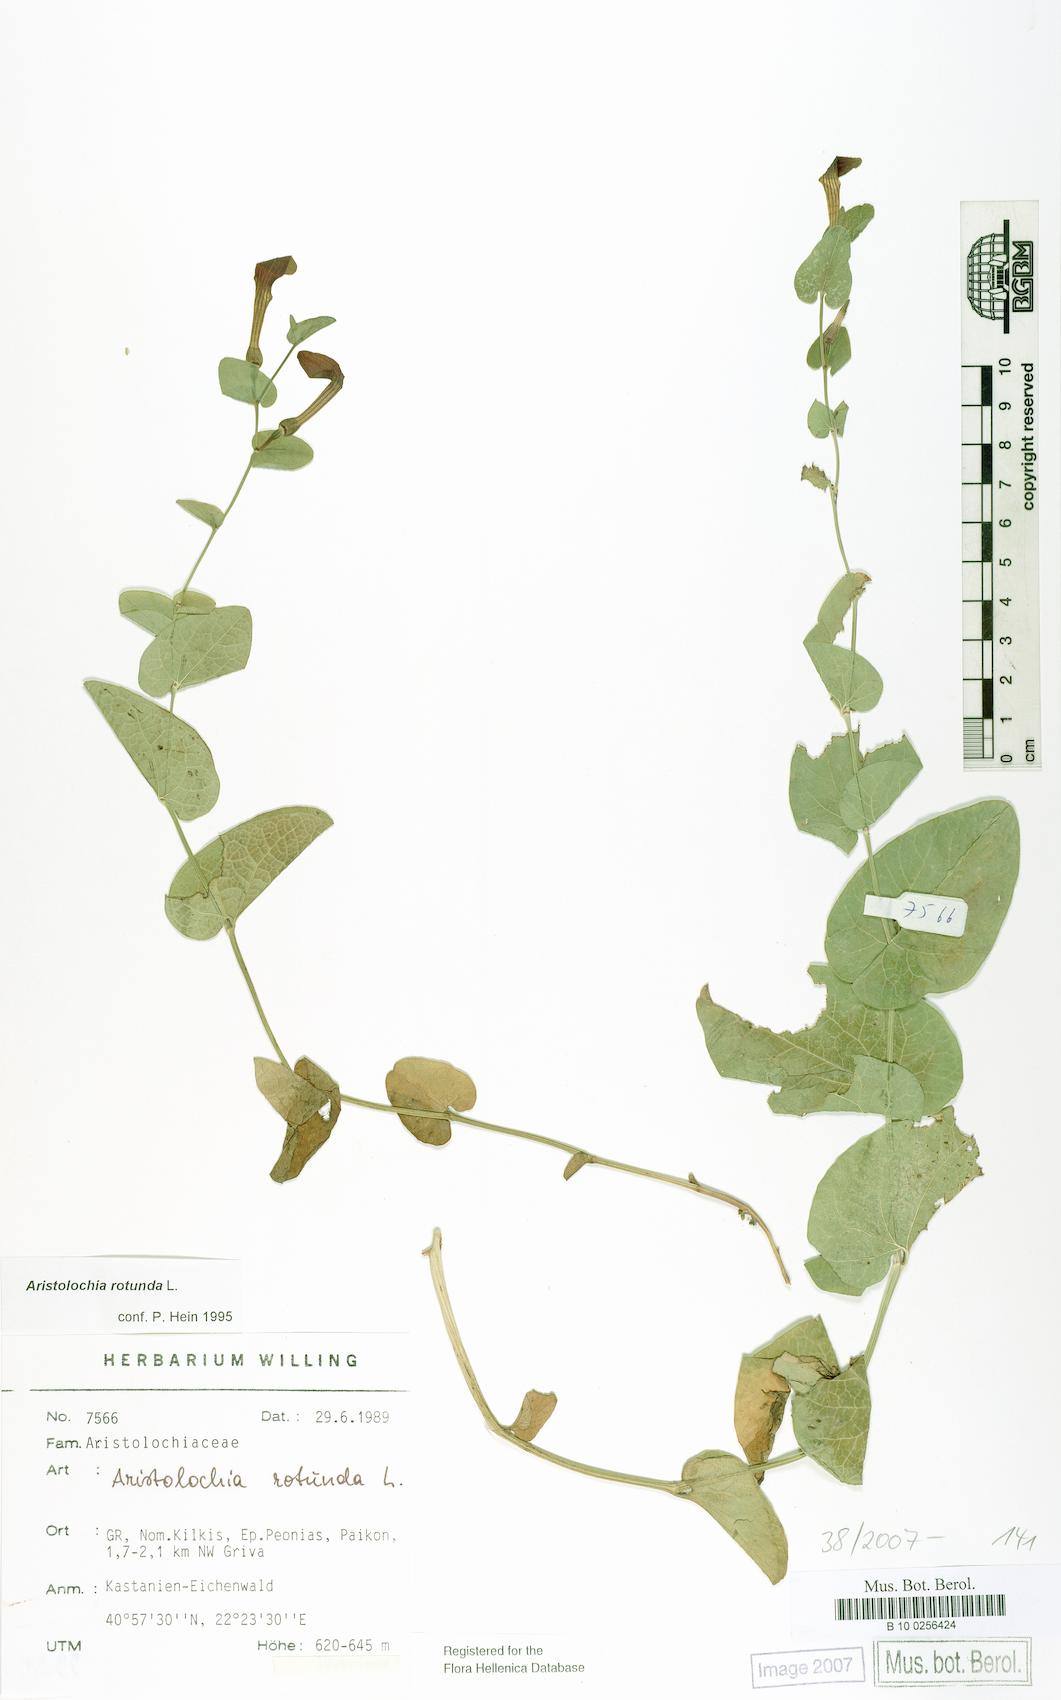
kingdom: Plantae
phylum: Tracheophyta
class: Magnoliopsida
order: Piperales
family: Aristolochiaceae
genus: Aristolochia
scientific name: Aristolochia rotunda
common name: Smearwort
